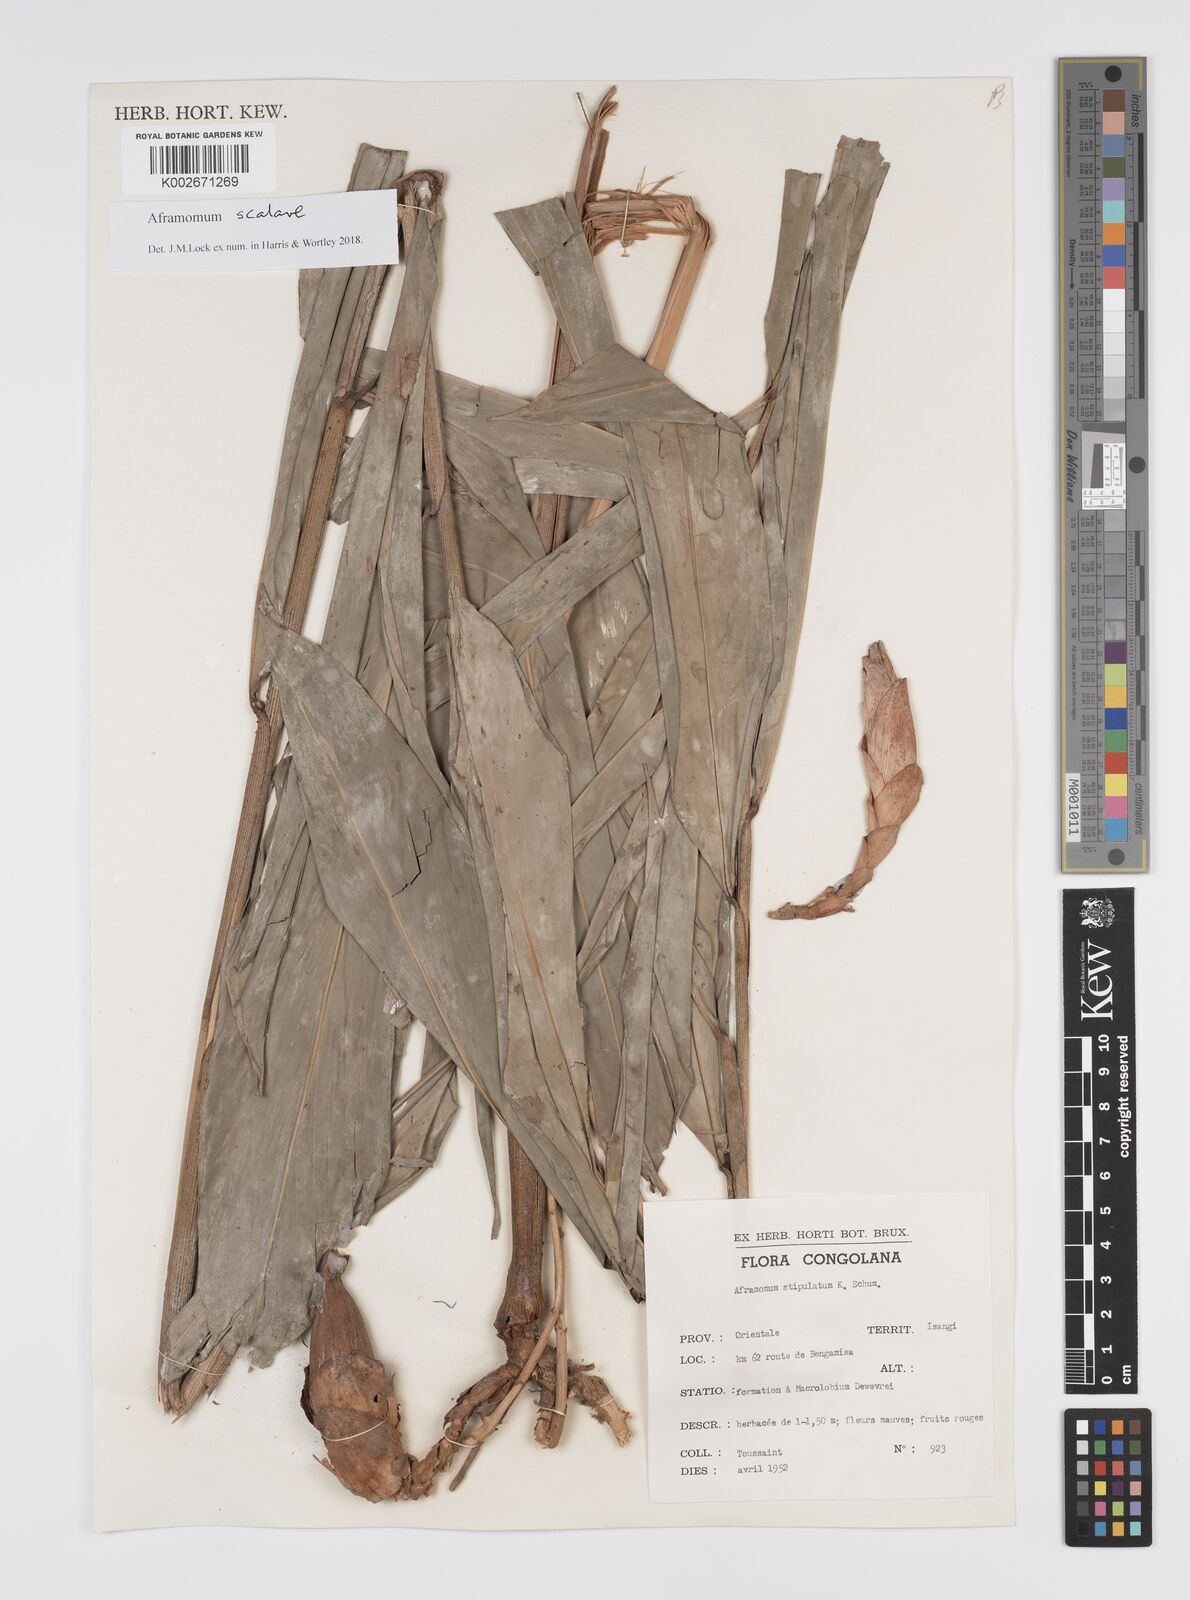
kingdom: Plantae
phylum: Tracheophyta
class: Liliopsida
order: Zingiberales
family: Zingiberaceae
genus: Aframomum
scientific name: Aframomum scalare
